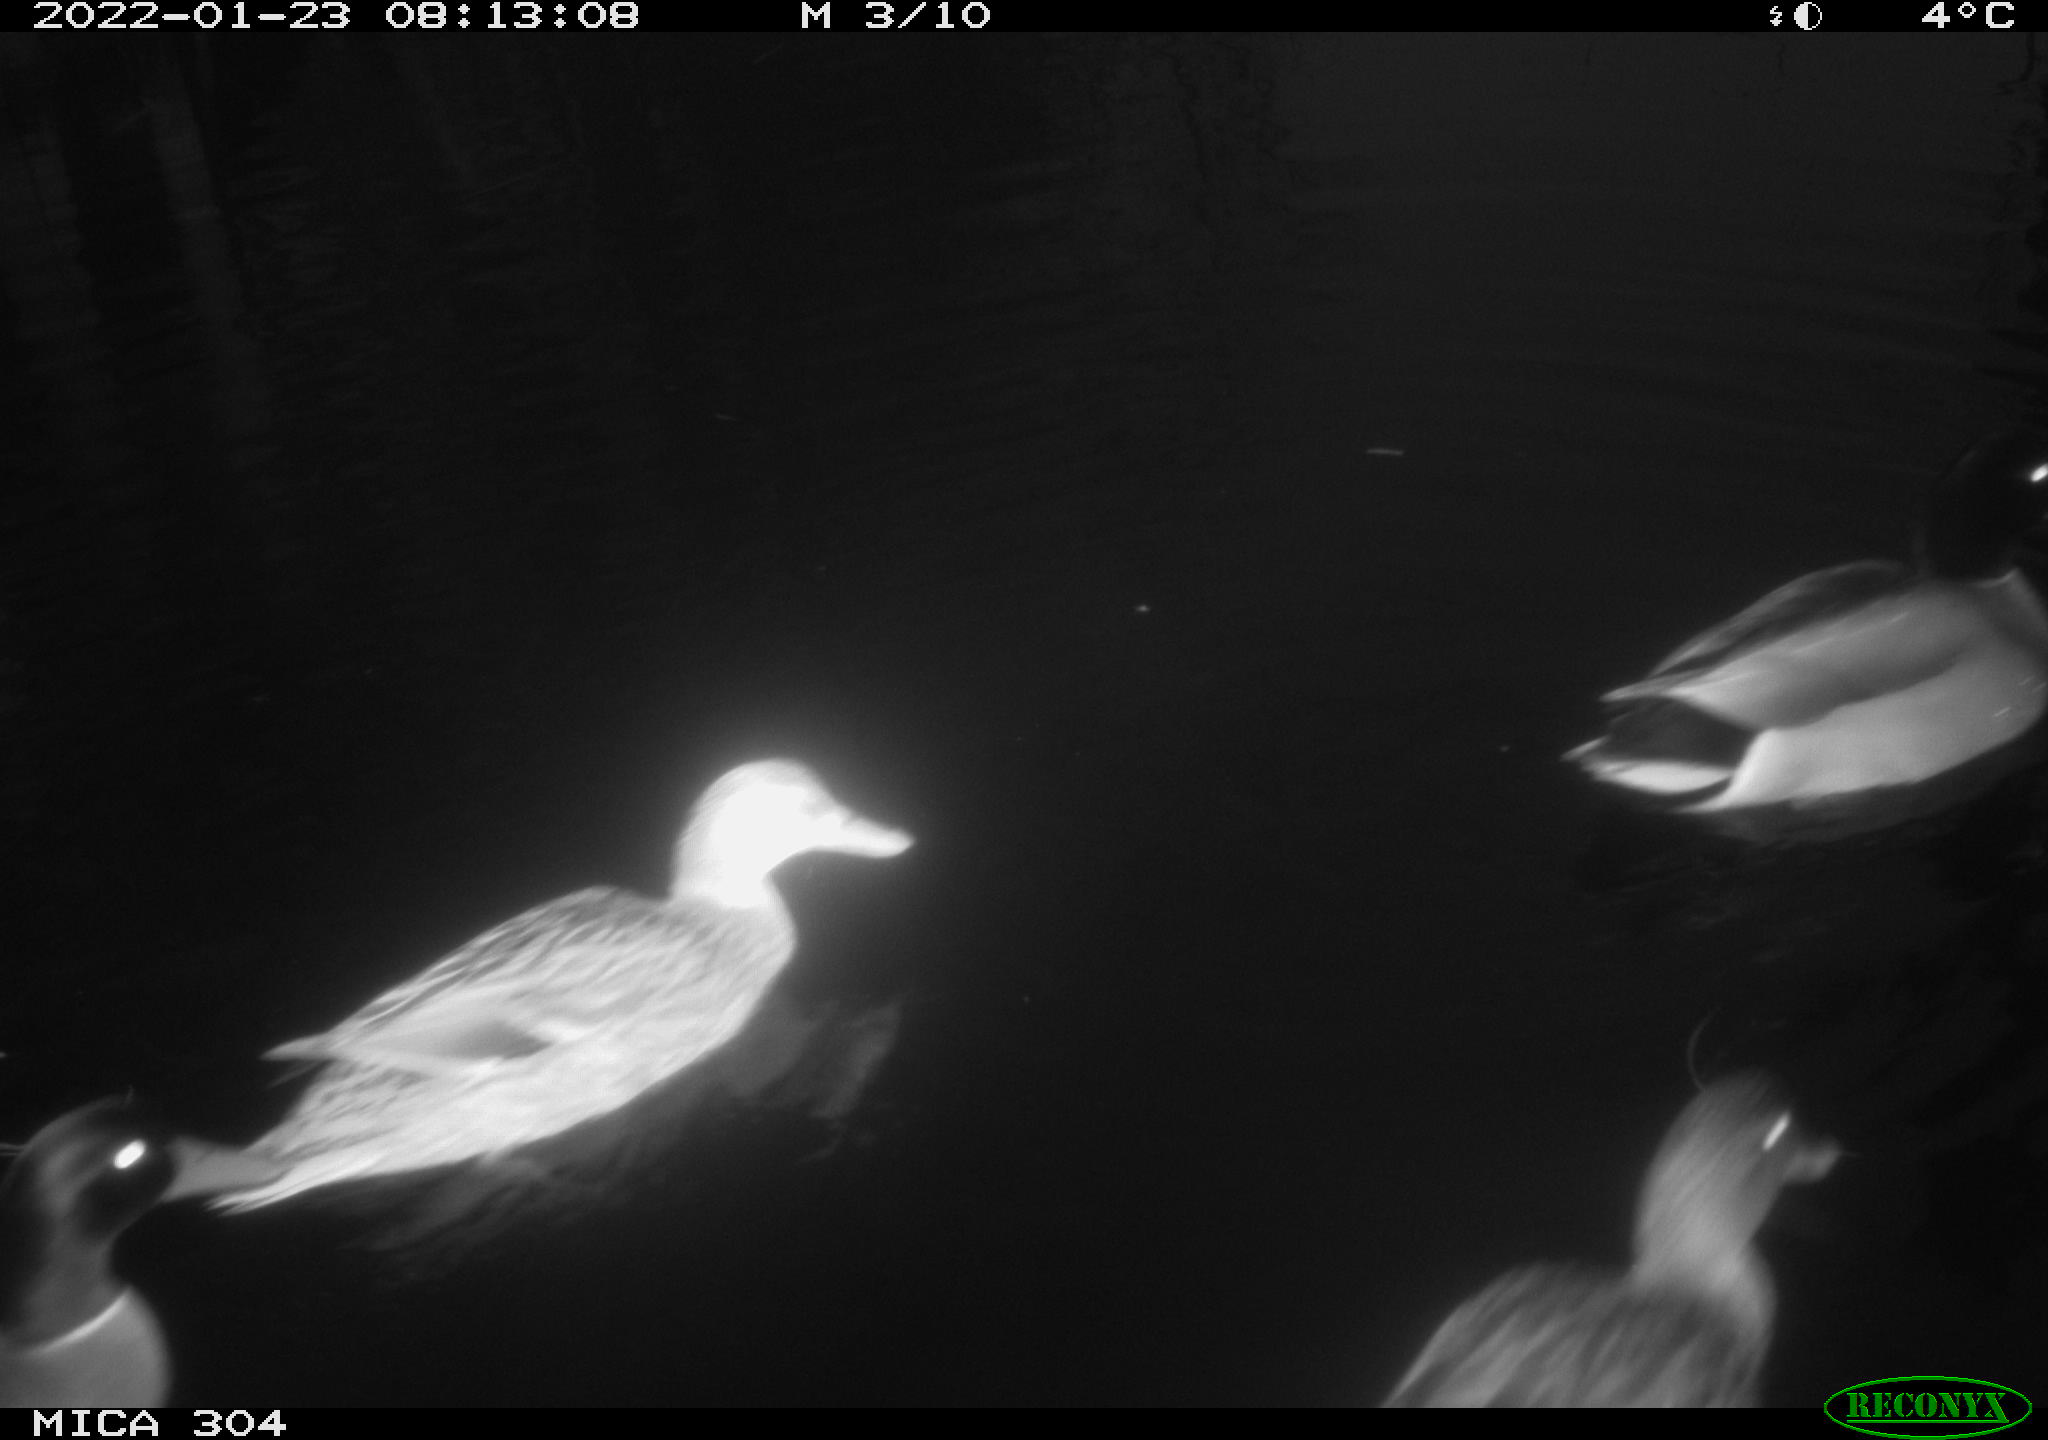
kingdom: Animalia
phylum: Chordata
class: Aves
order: Anseriformes
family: Anatidae
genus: Anas
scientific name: Anas
